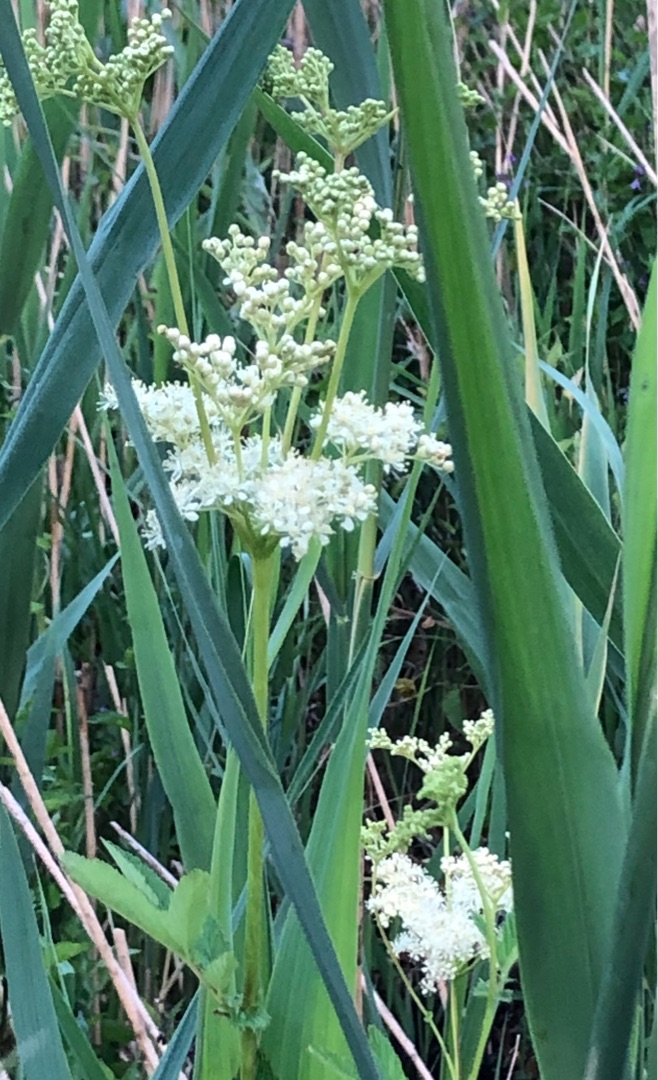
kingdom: Plantae
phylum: Tracheophyta
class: Magnoliopsida
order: Rosales
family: Rosaceae
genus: Filipendula
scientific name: Filipendula ulmaria
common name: Almindelig mjødurt
